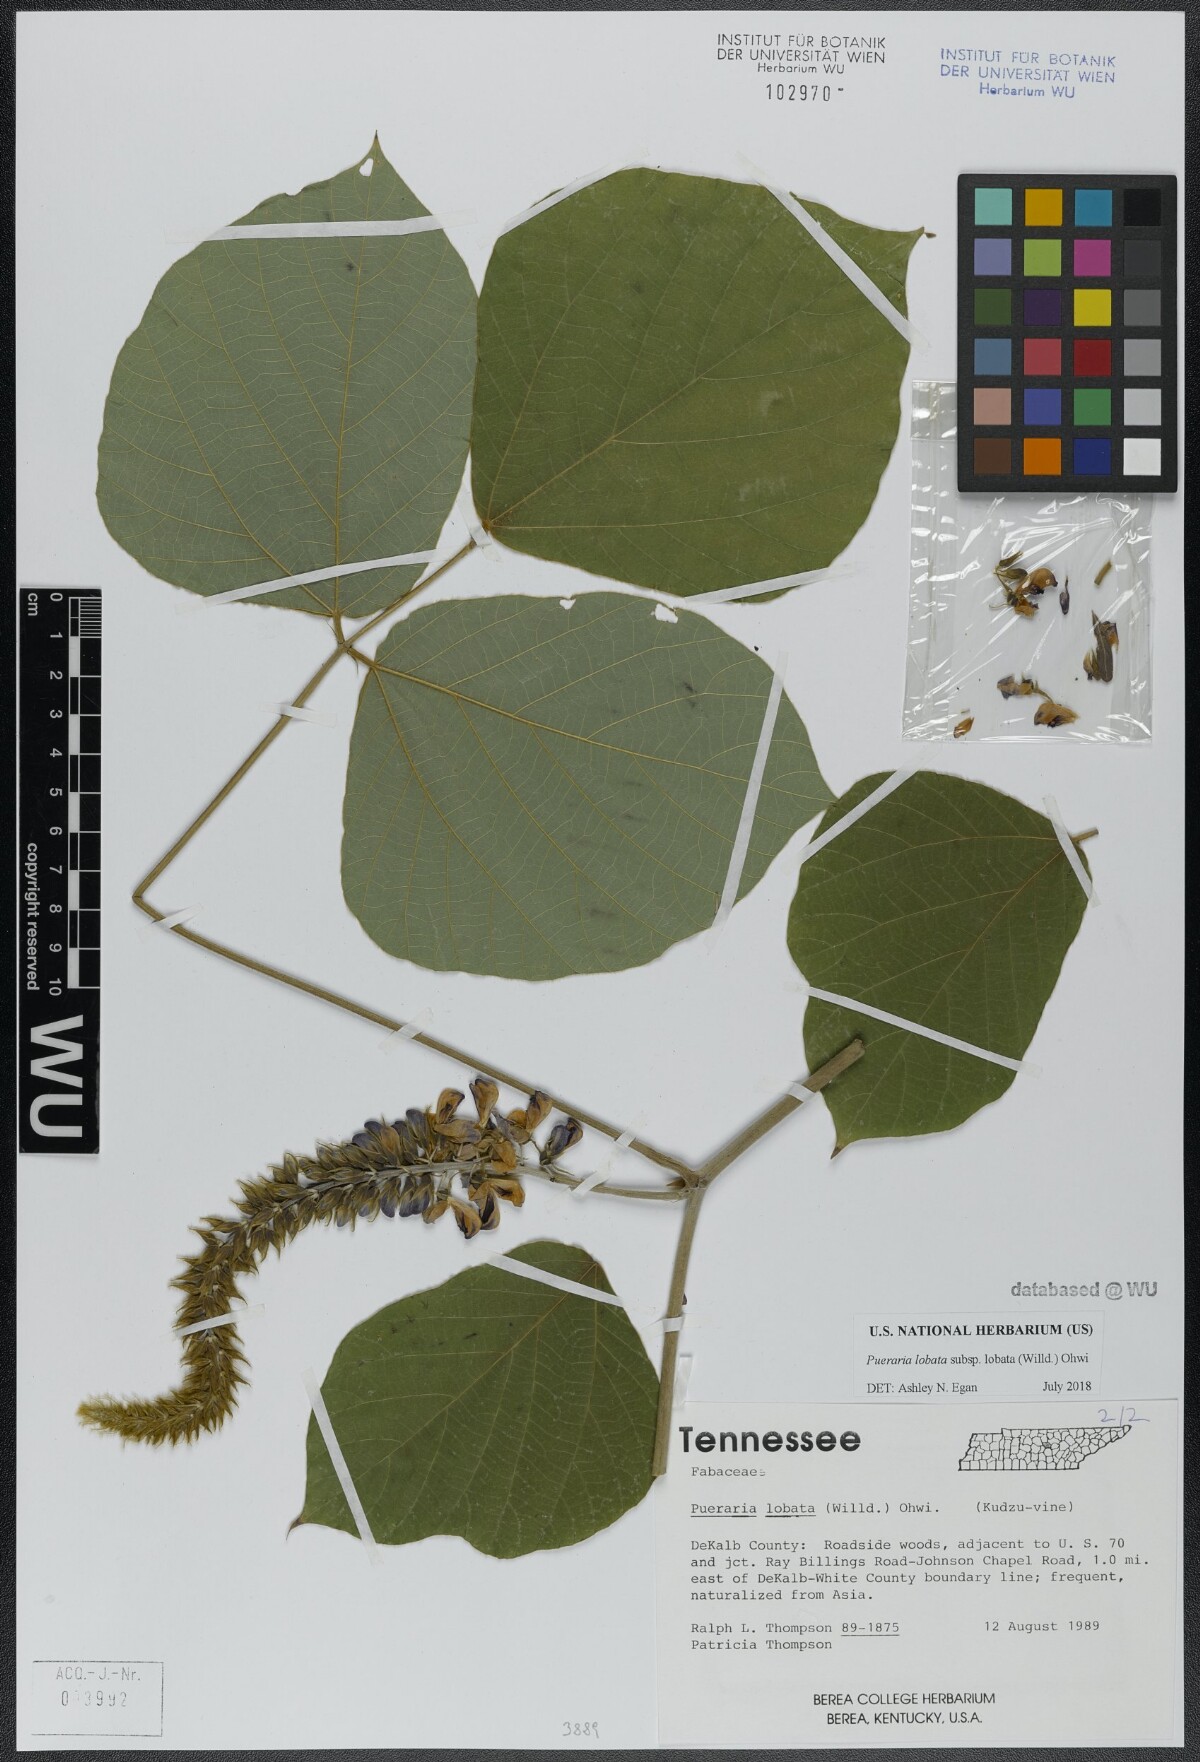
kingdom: Plantae
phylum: Tracheophyta
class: Magnoliopsida
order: Fabales
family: Fabaceae
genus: Pueraria
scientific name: Pueraria montana
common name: Kudzu
